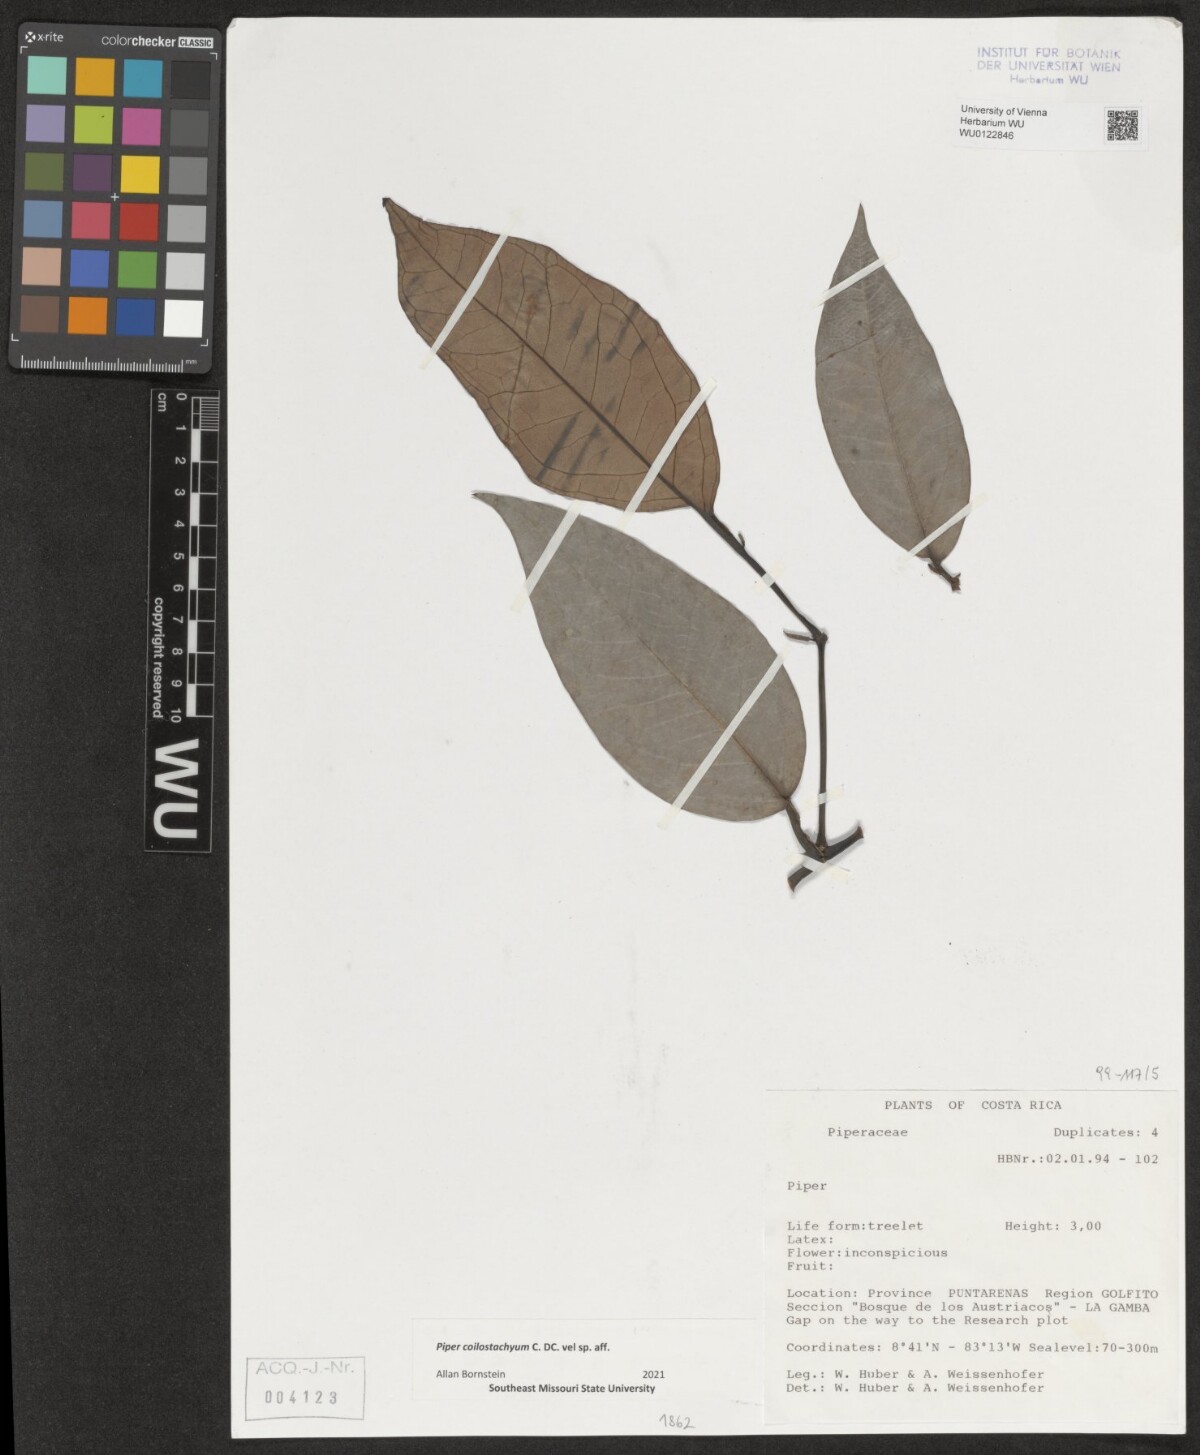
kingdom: Plantae
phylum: Tracheophyta
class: Magnoliopsida
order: Piperales
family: Piperaceae
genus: Piper
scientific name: Piper coilostachyum
